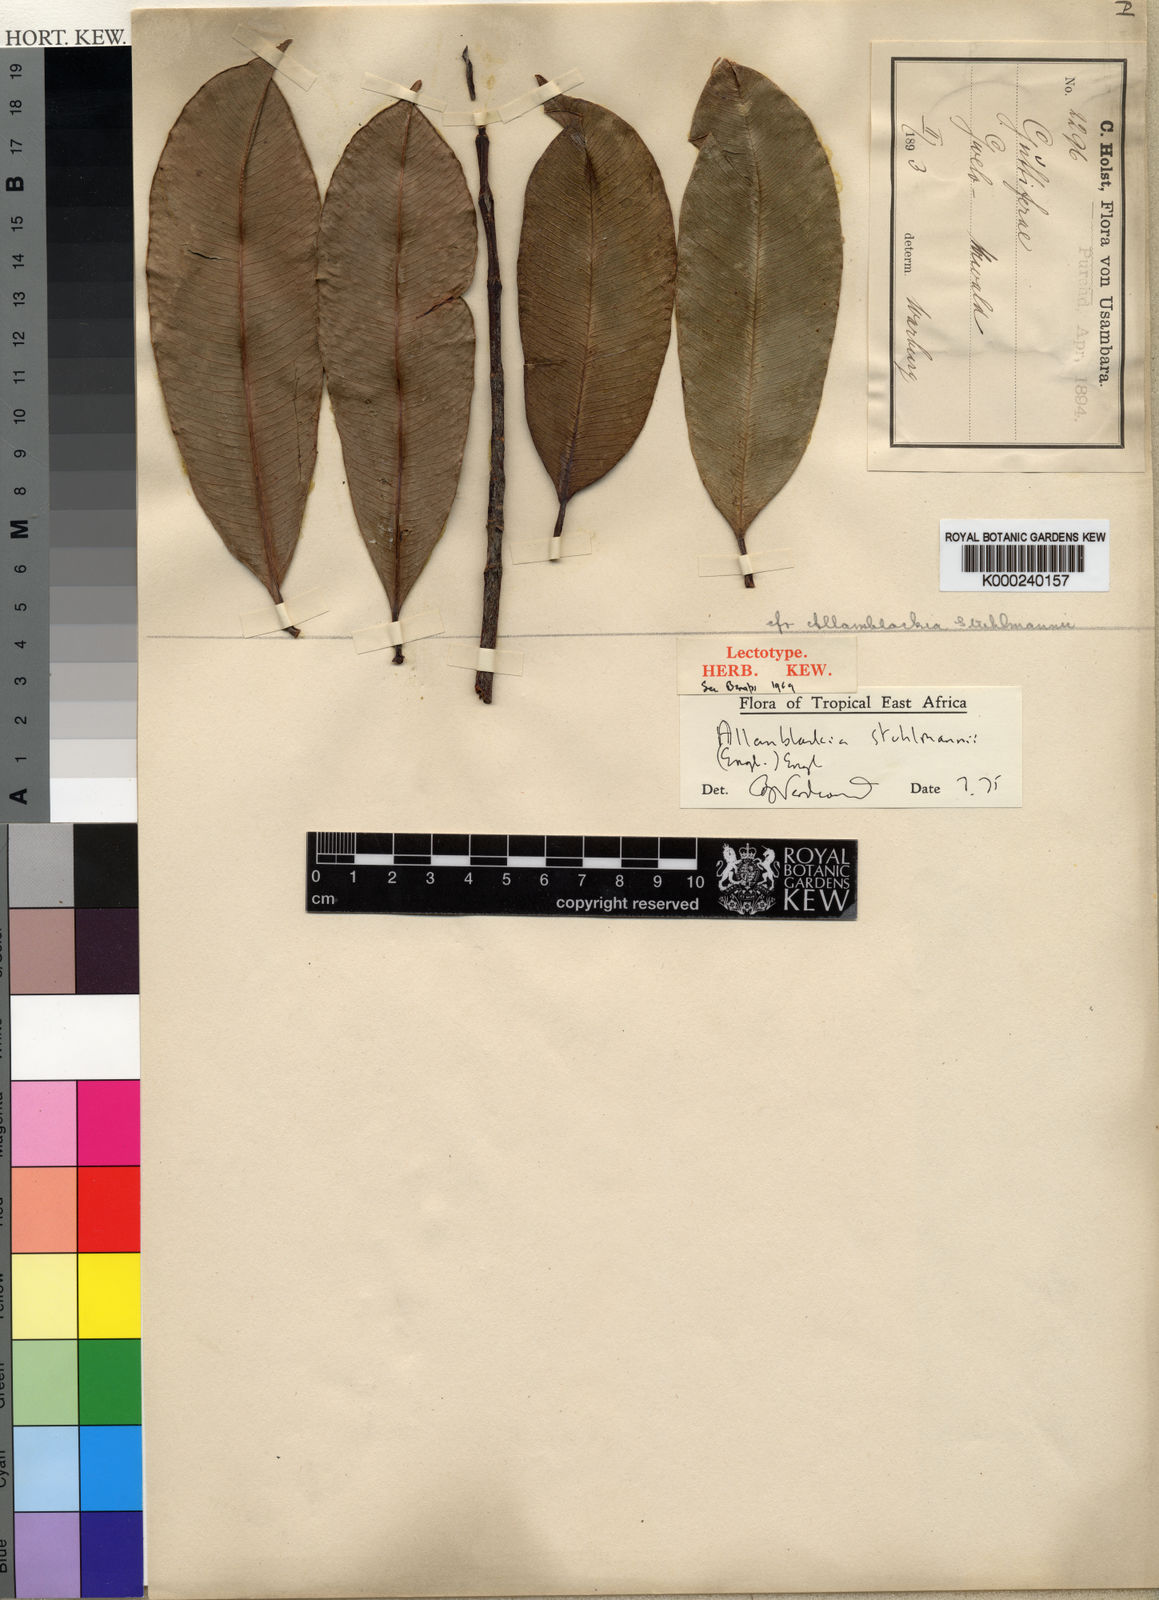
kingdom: Plantae
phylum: Tracheophyta
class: Magnoliopsida
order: Malpighiales
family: Clusiaceae
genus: Allanblackia
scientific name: Allanblackia stuhlmannii
